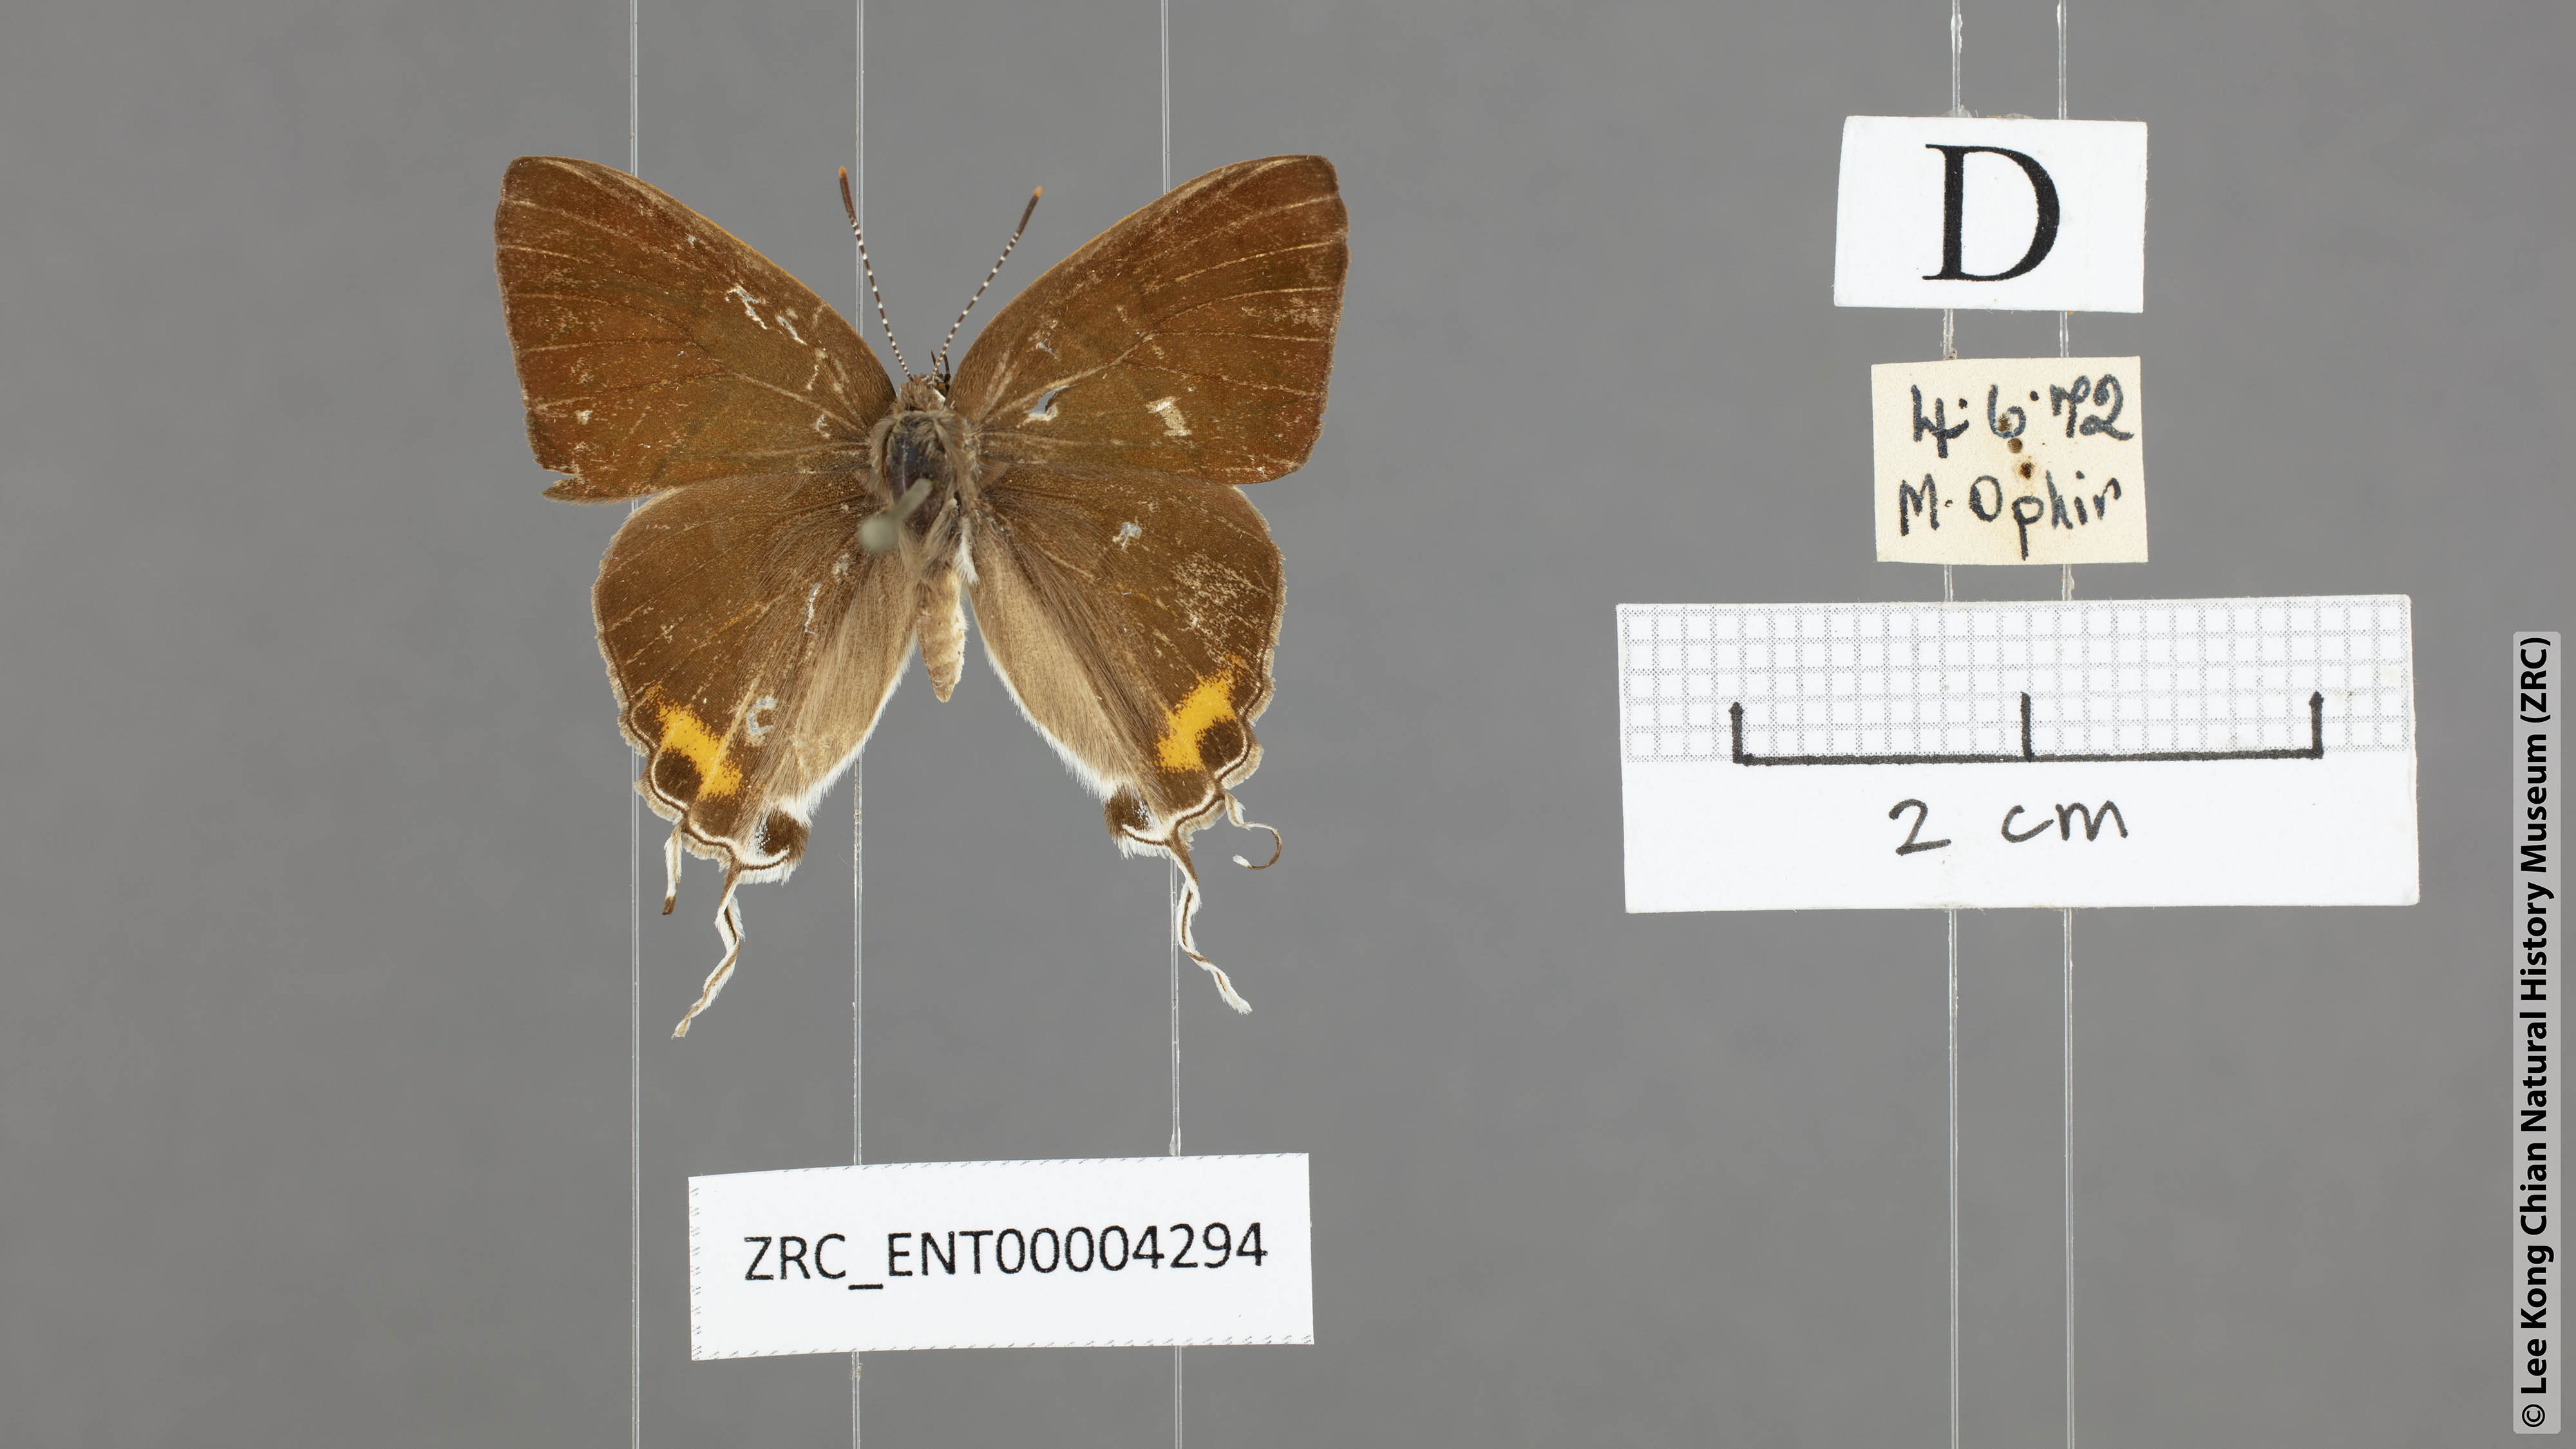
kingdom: Animalia
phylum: Arthropoda
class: Insecta
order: Lepidoptera
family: Lycaenidae
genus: Hypolycaena
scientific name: Hypolycaena thecloides
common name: Dark tit
